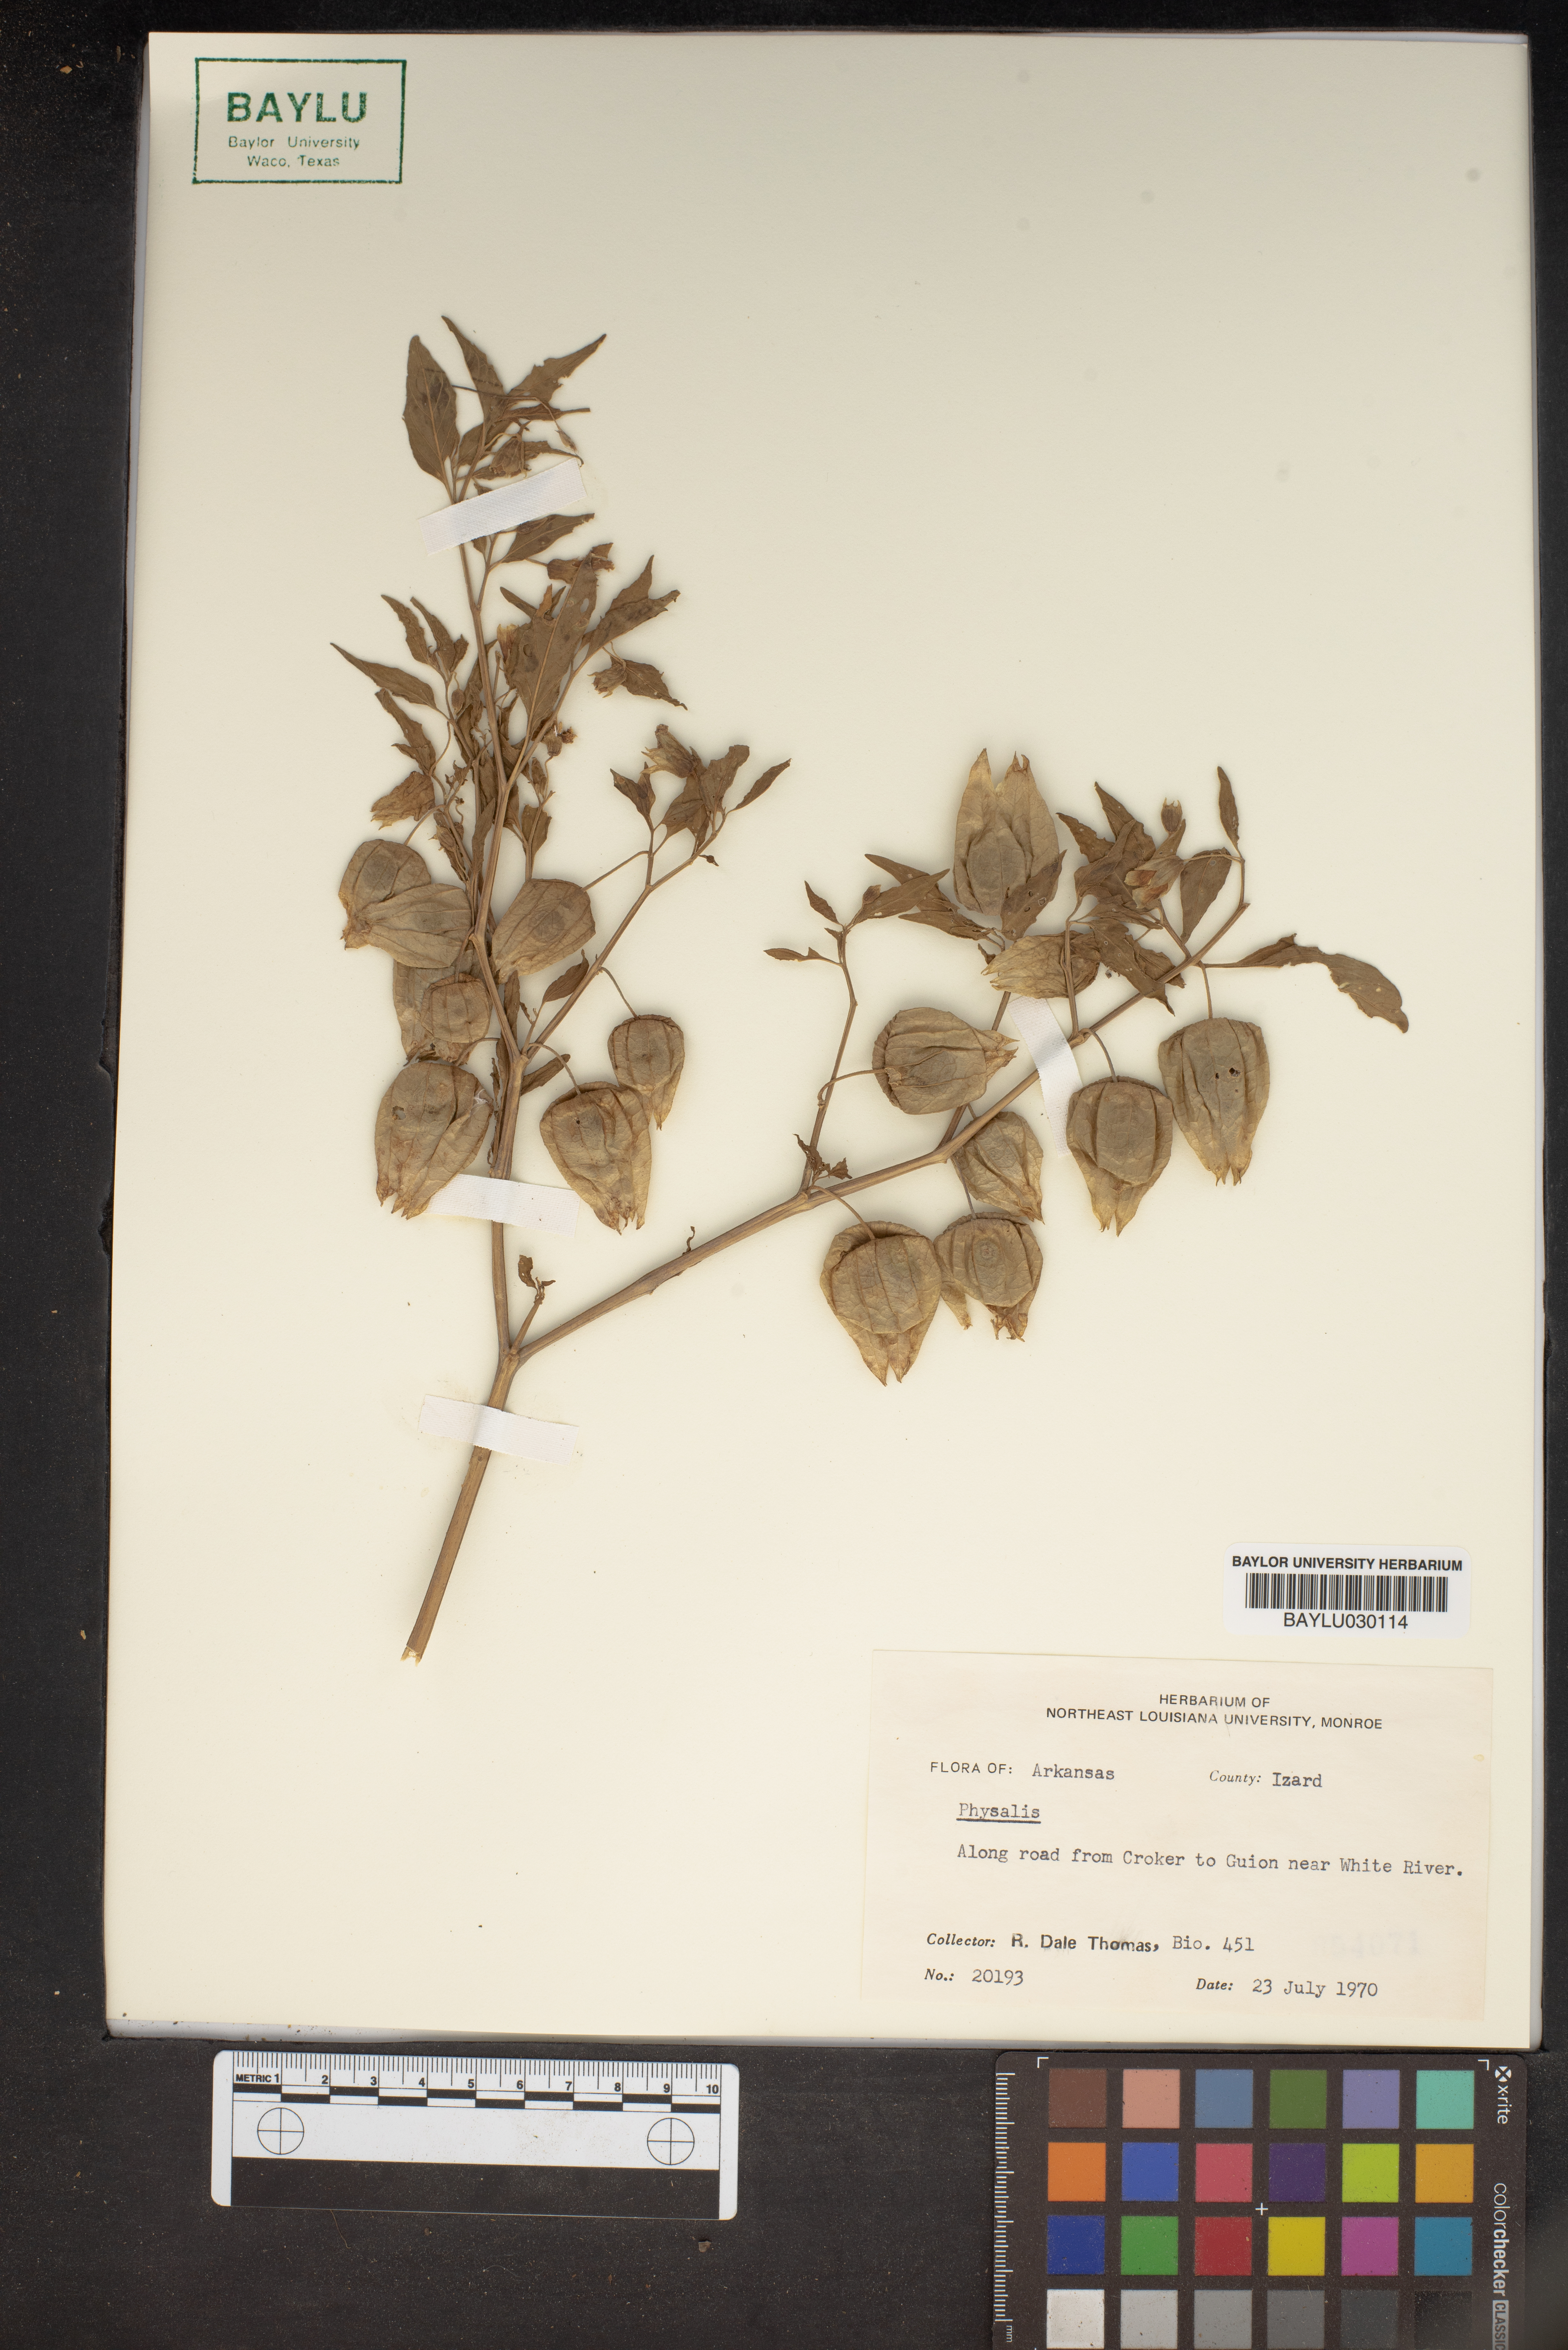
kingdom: Plantae
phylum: Tracheophyta
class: Magnoliopsida
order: Solanales
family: Solanaceae
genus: Physalis
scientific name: Physalis
